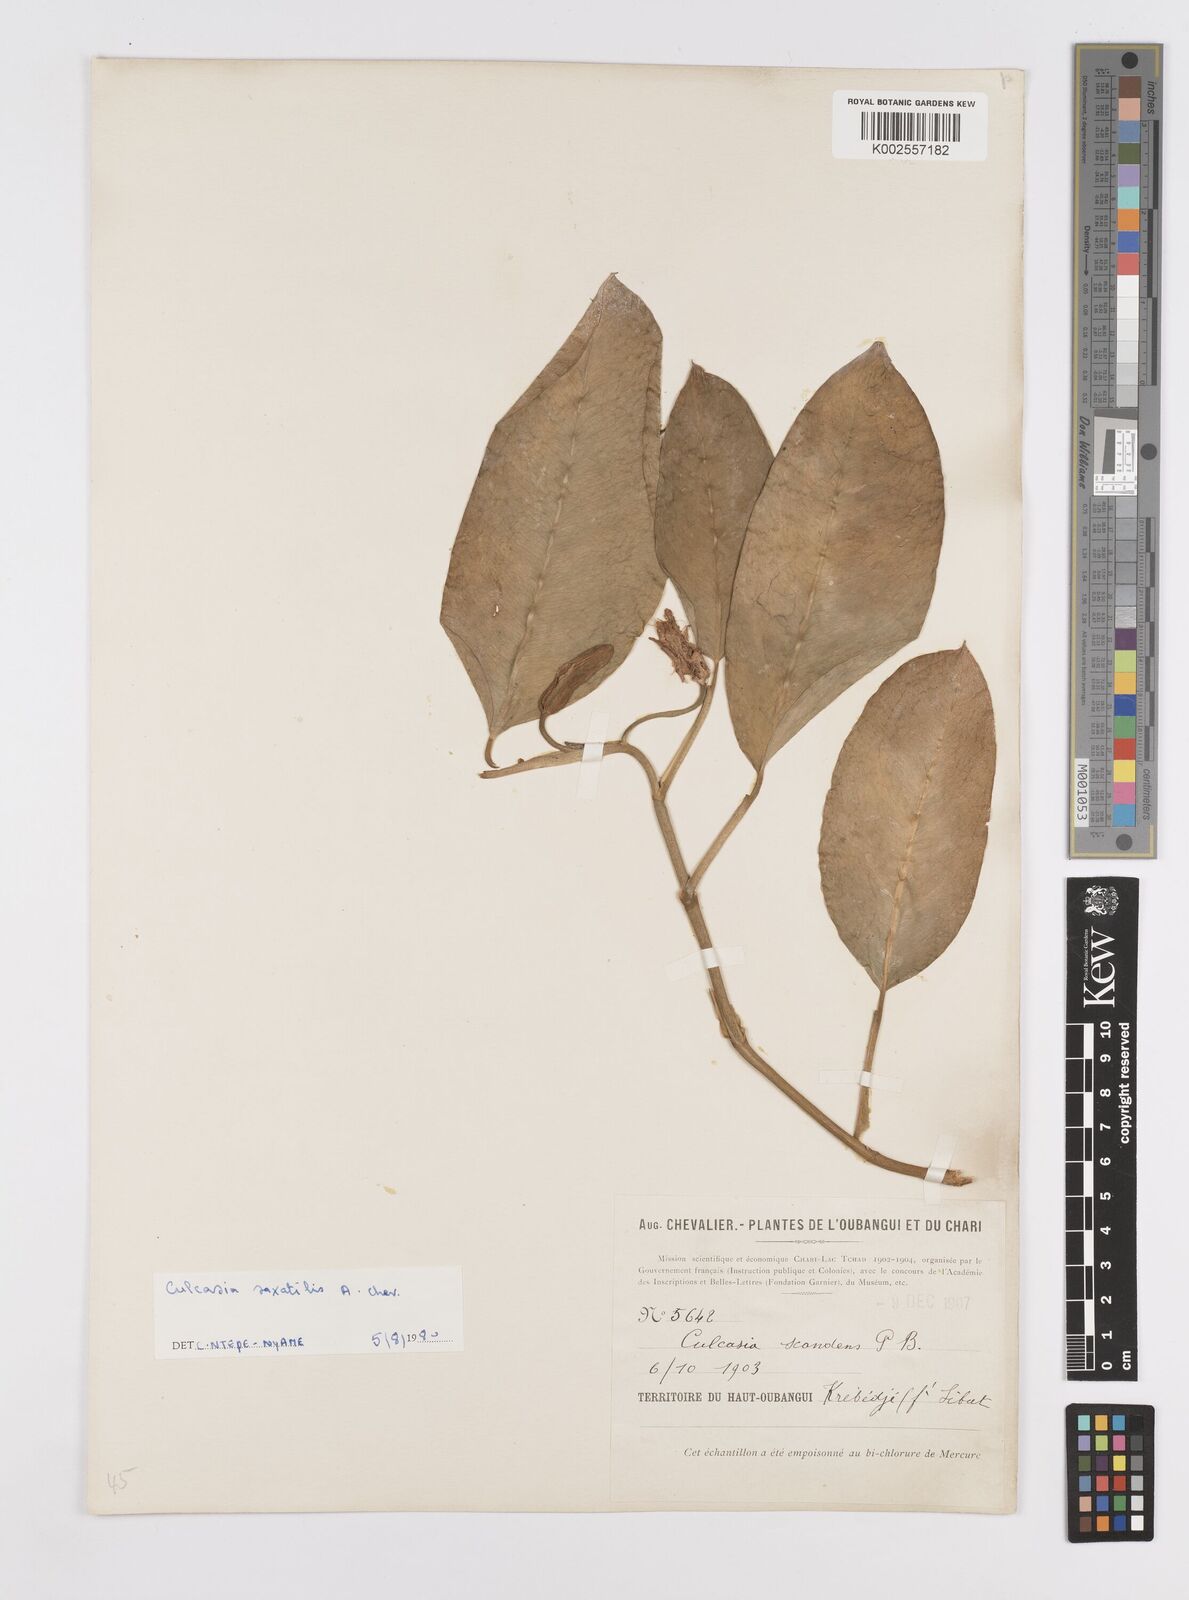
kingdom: Plantae
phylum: Tracheophyta
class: Liliopsida
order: Alismatales
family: Araceae
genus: Culcasia
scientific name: Culcasia scandens
